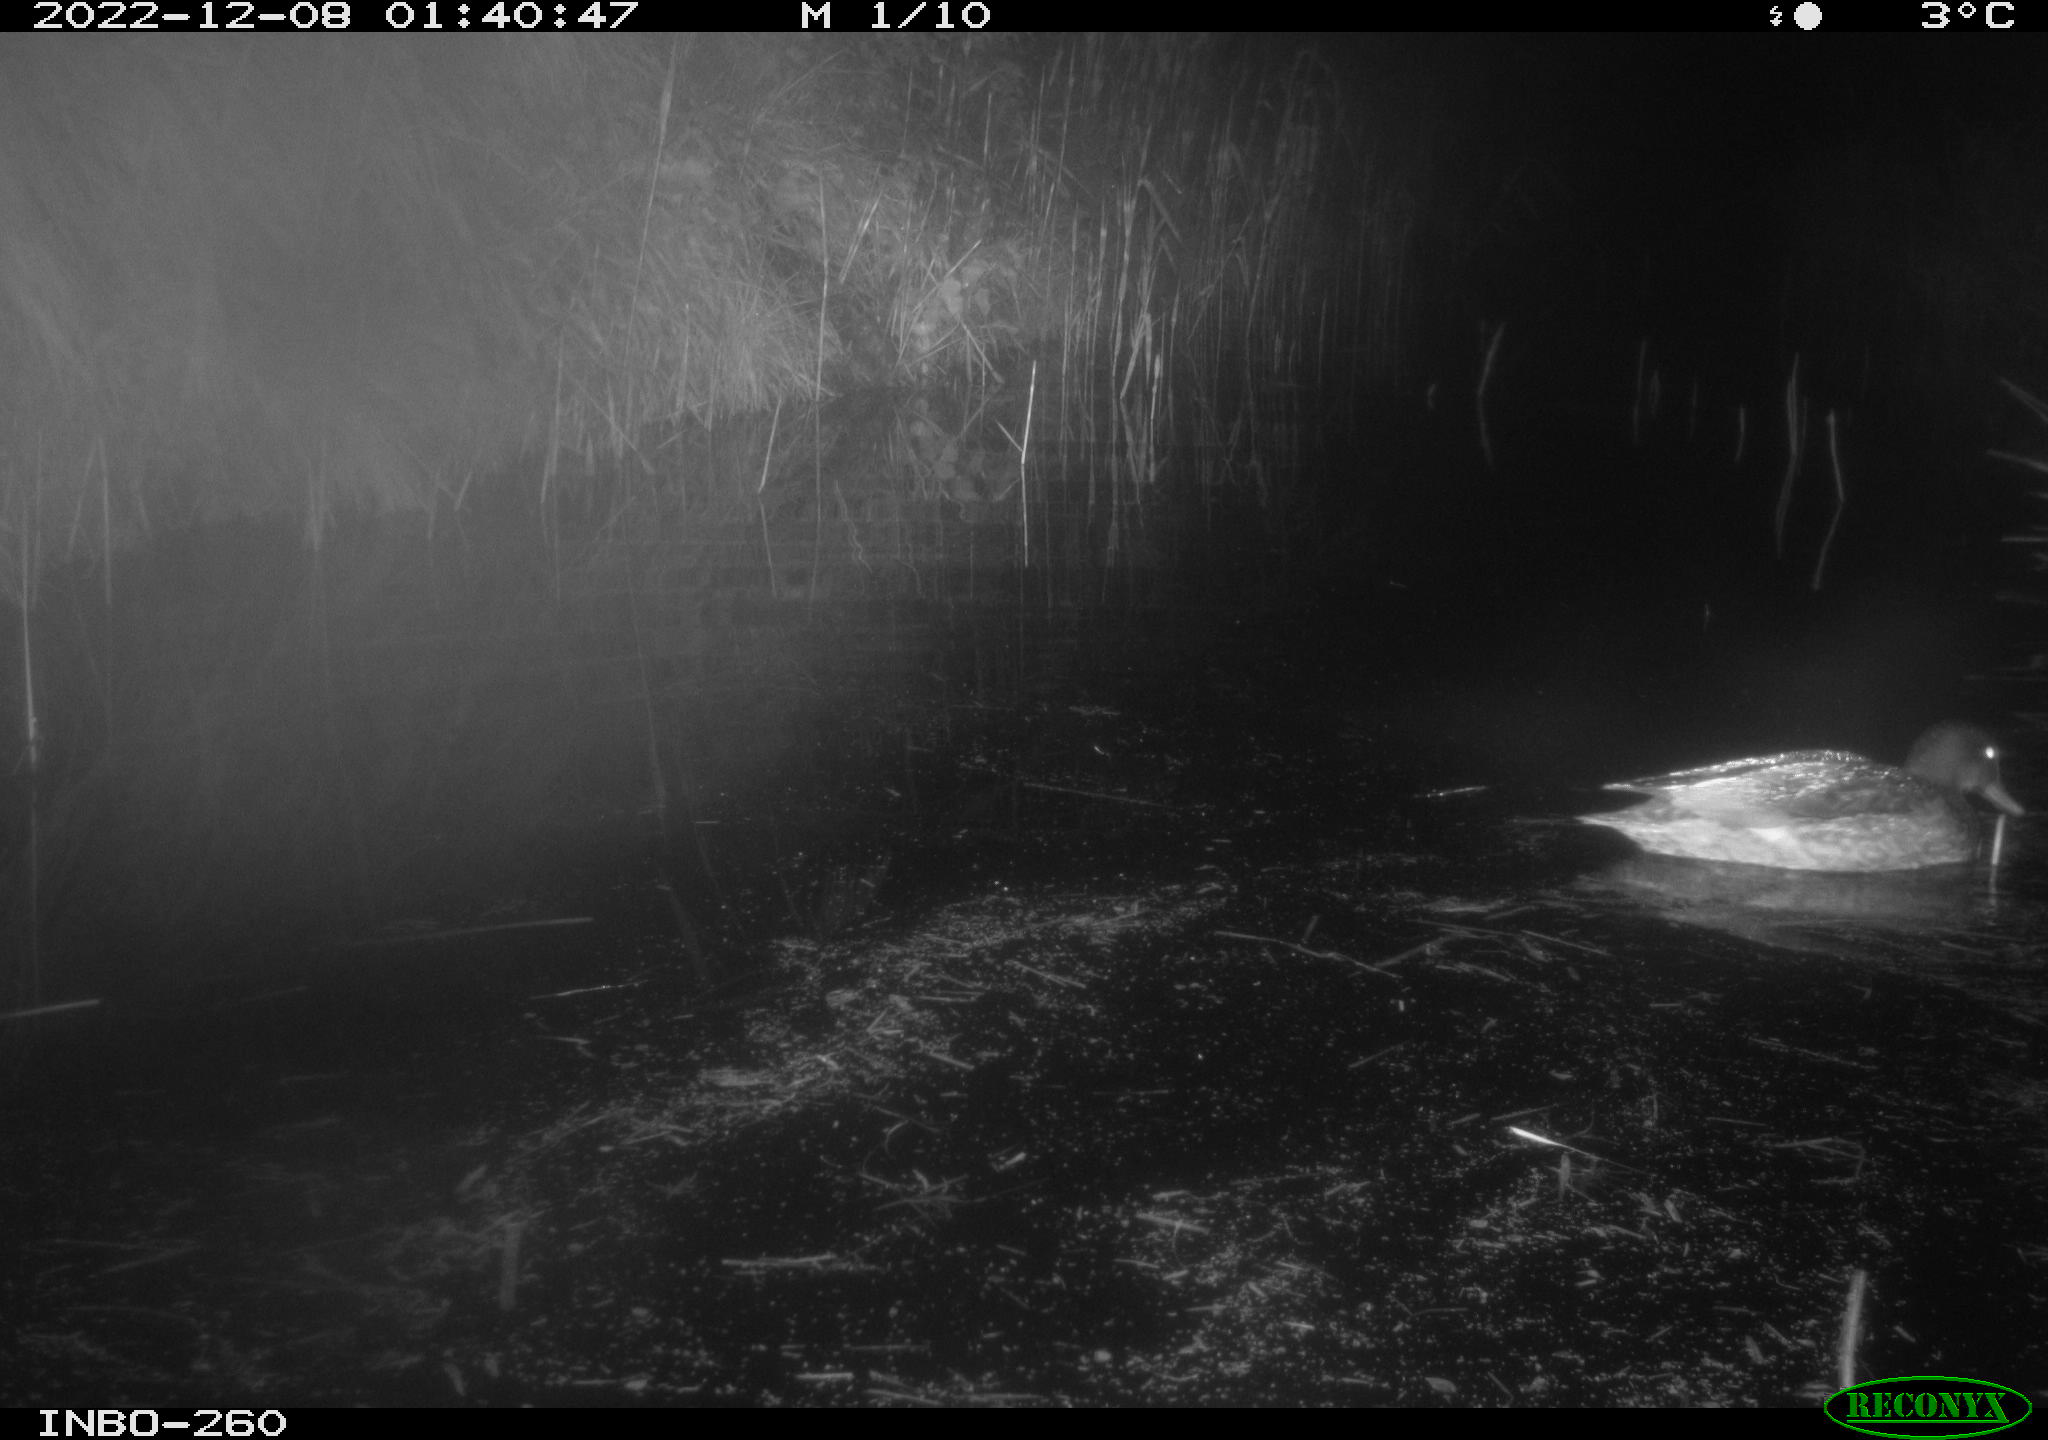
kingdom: Animalia
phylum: Chordata
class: Aves
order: Anseriformes
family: Anatidae
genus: Anas
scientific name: Anas
